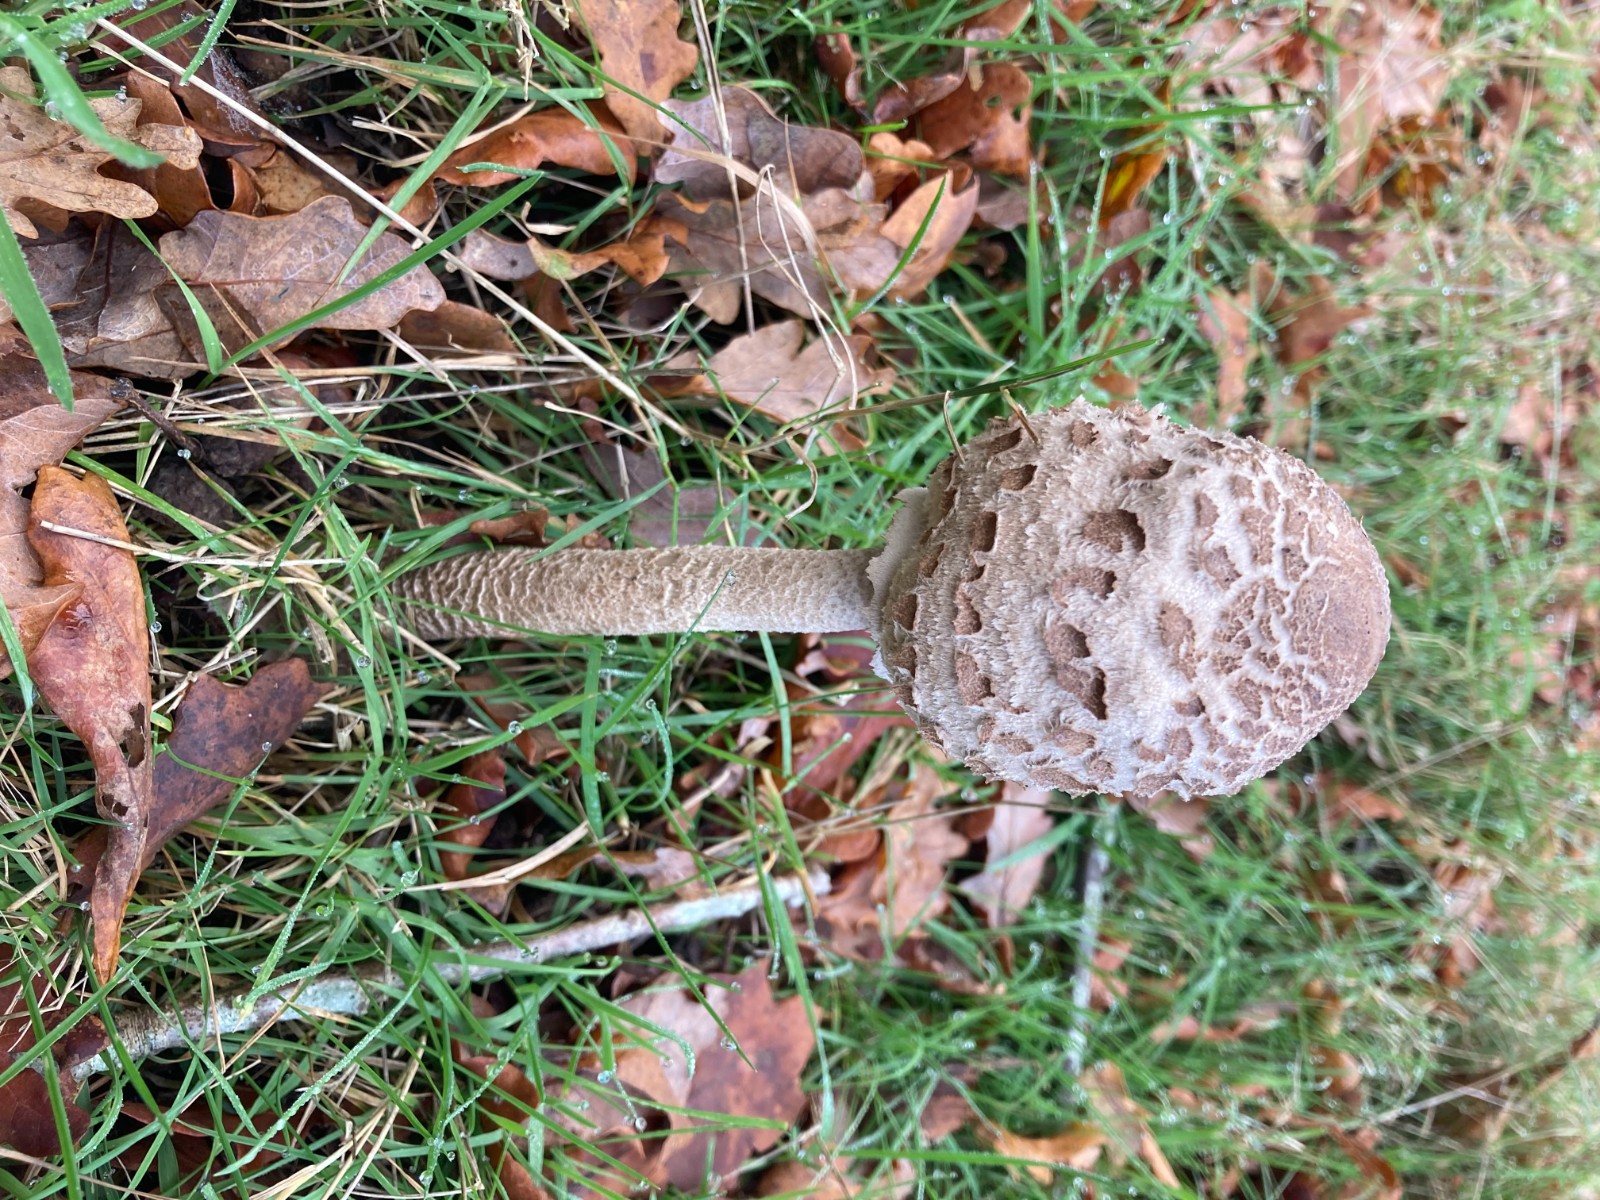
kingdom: Fungi
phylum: Basidiomycota
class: Agaricomycetes
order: Agaricales
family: Agaricaceae
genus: Macrolepiota
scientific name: Macrolepiota procera
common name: stor kæmpeparasolhat
